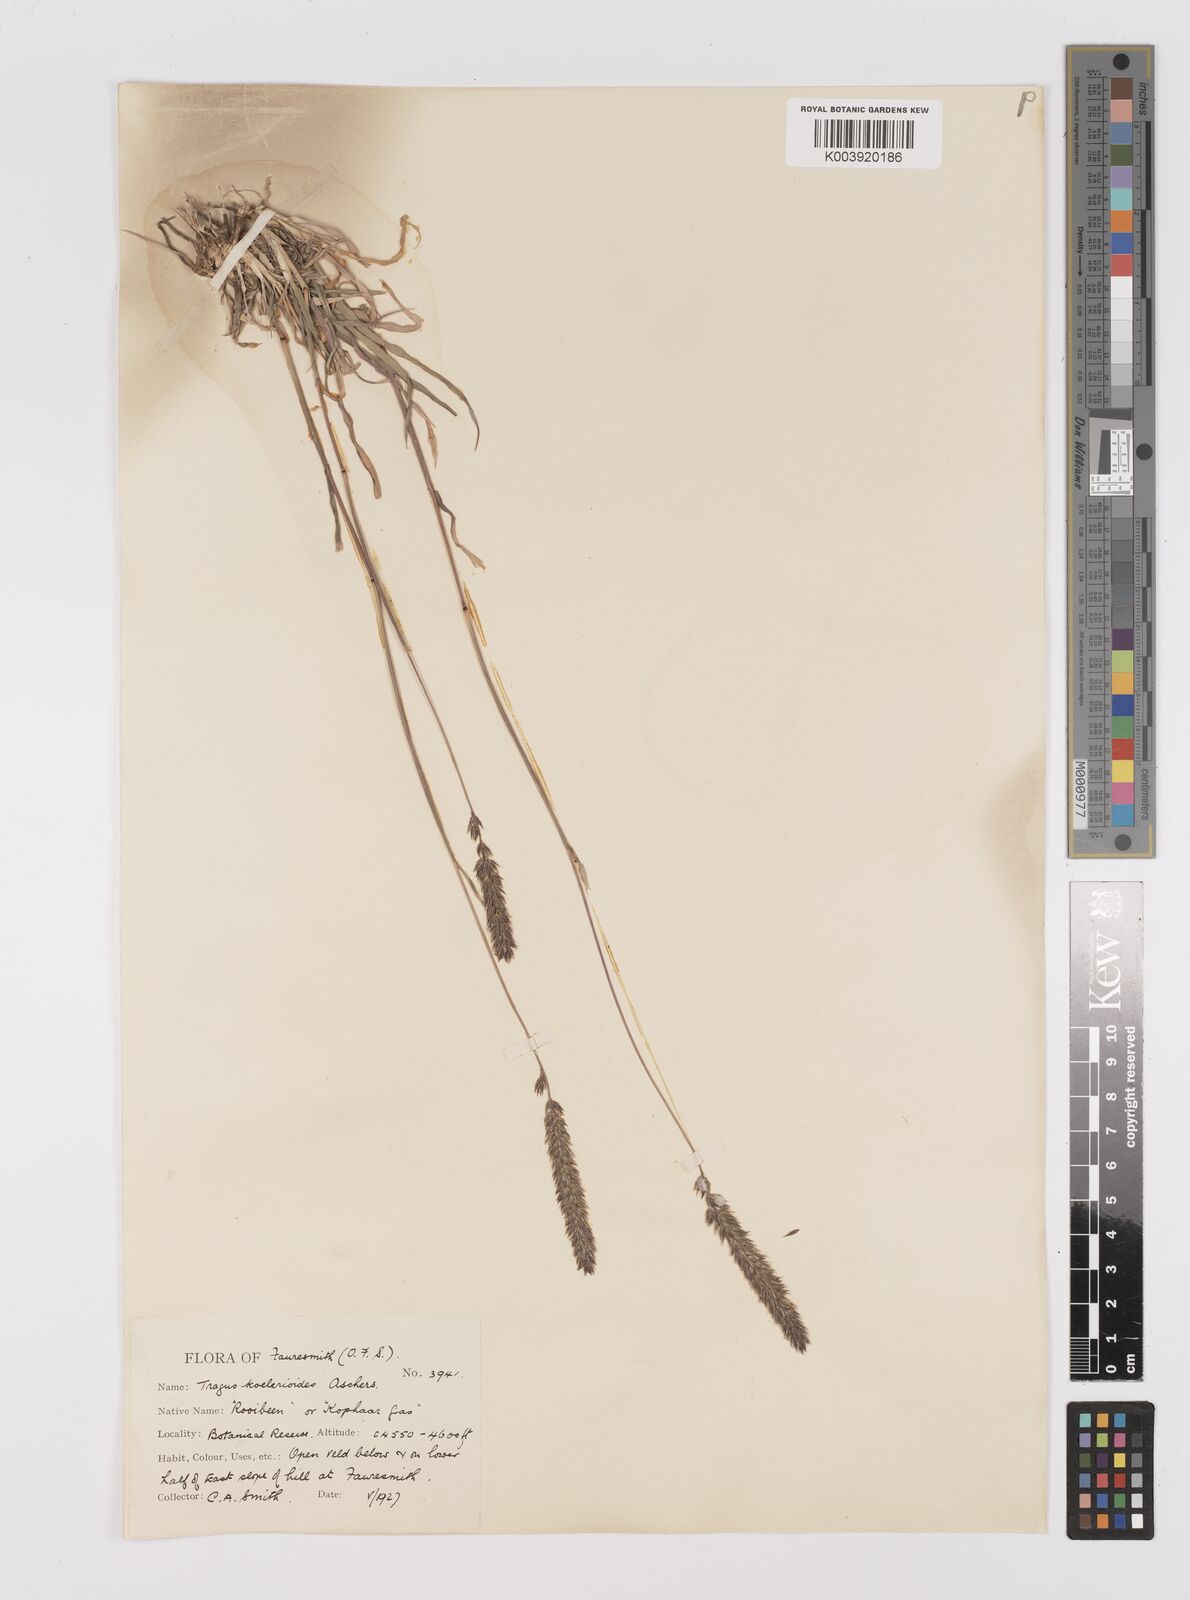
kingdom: Plantae
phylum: Tracheophyta
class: Liliopsida
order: Poales
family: Poaceae
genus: Tragus
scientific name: Tragus koelerioides
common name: Creeping carrot-seed grass
